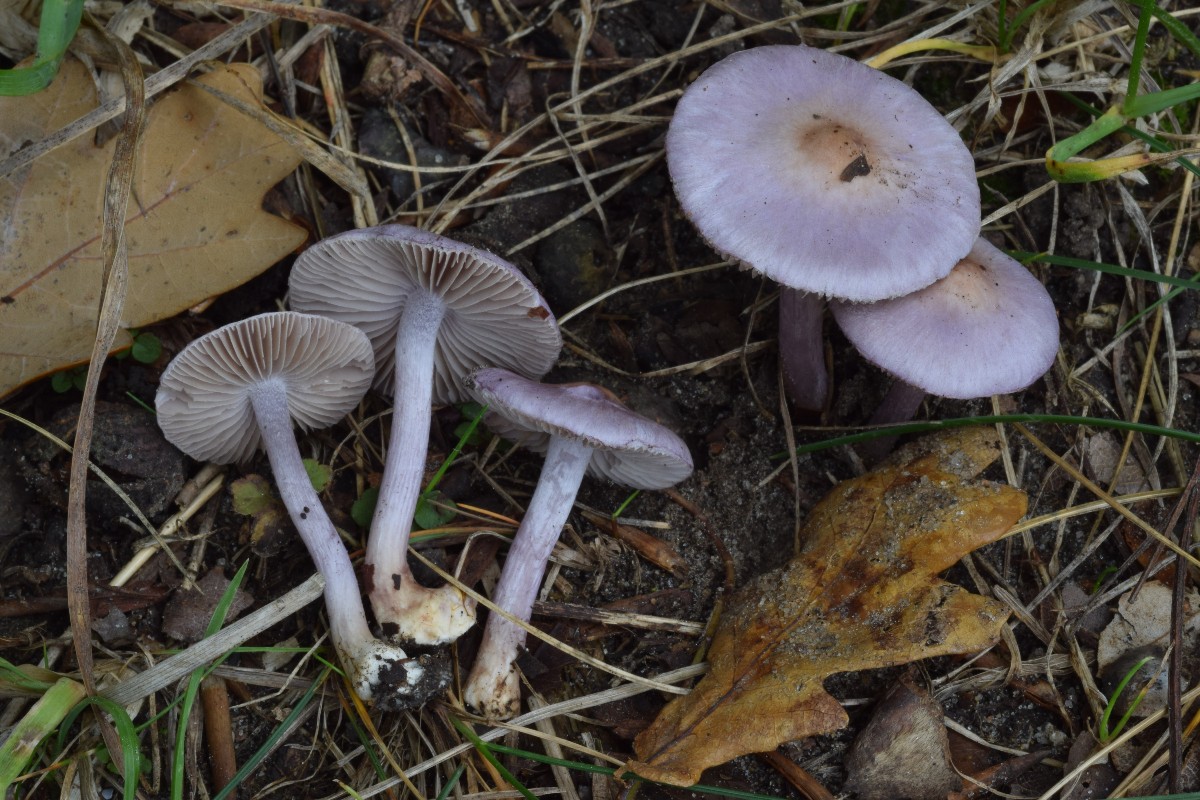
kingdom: Fungi
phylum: Basidiomycota
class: Agaricomycetes
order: Agaricales
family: Inocybaceae
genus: Inocybe
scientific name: Inocybe geophylla
